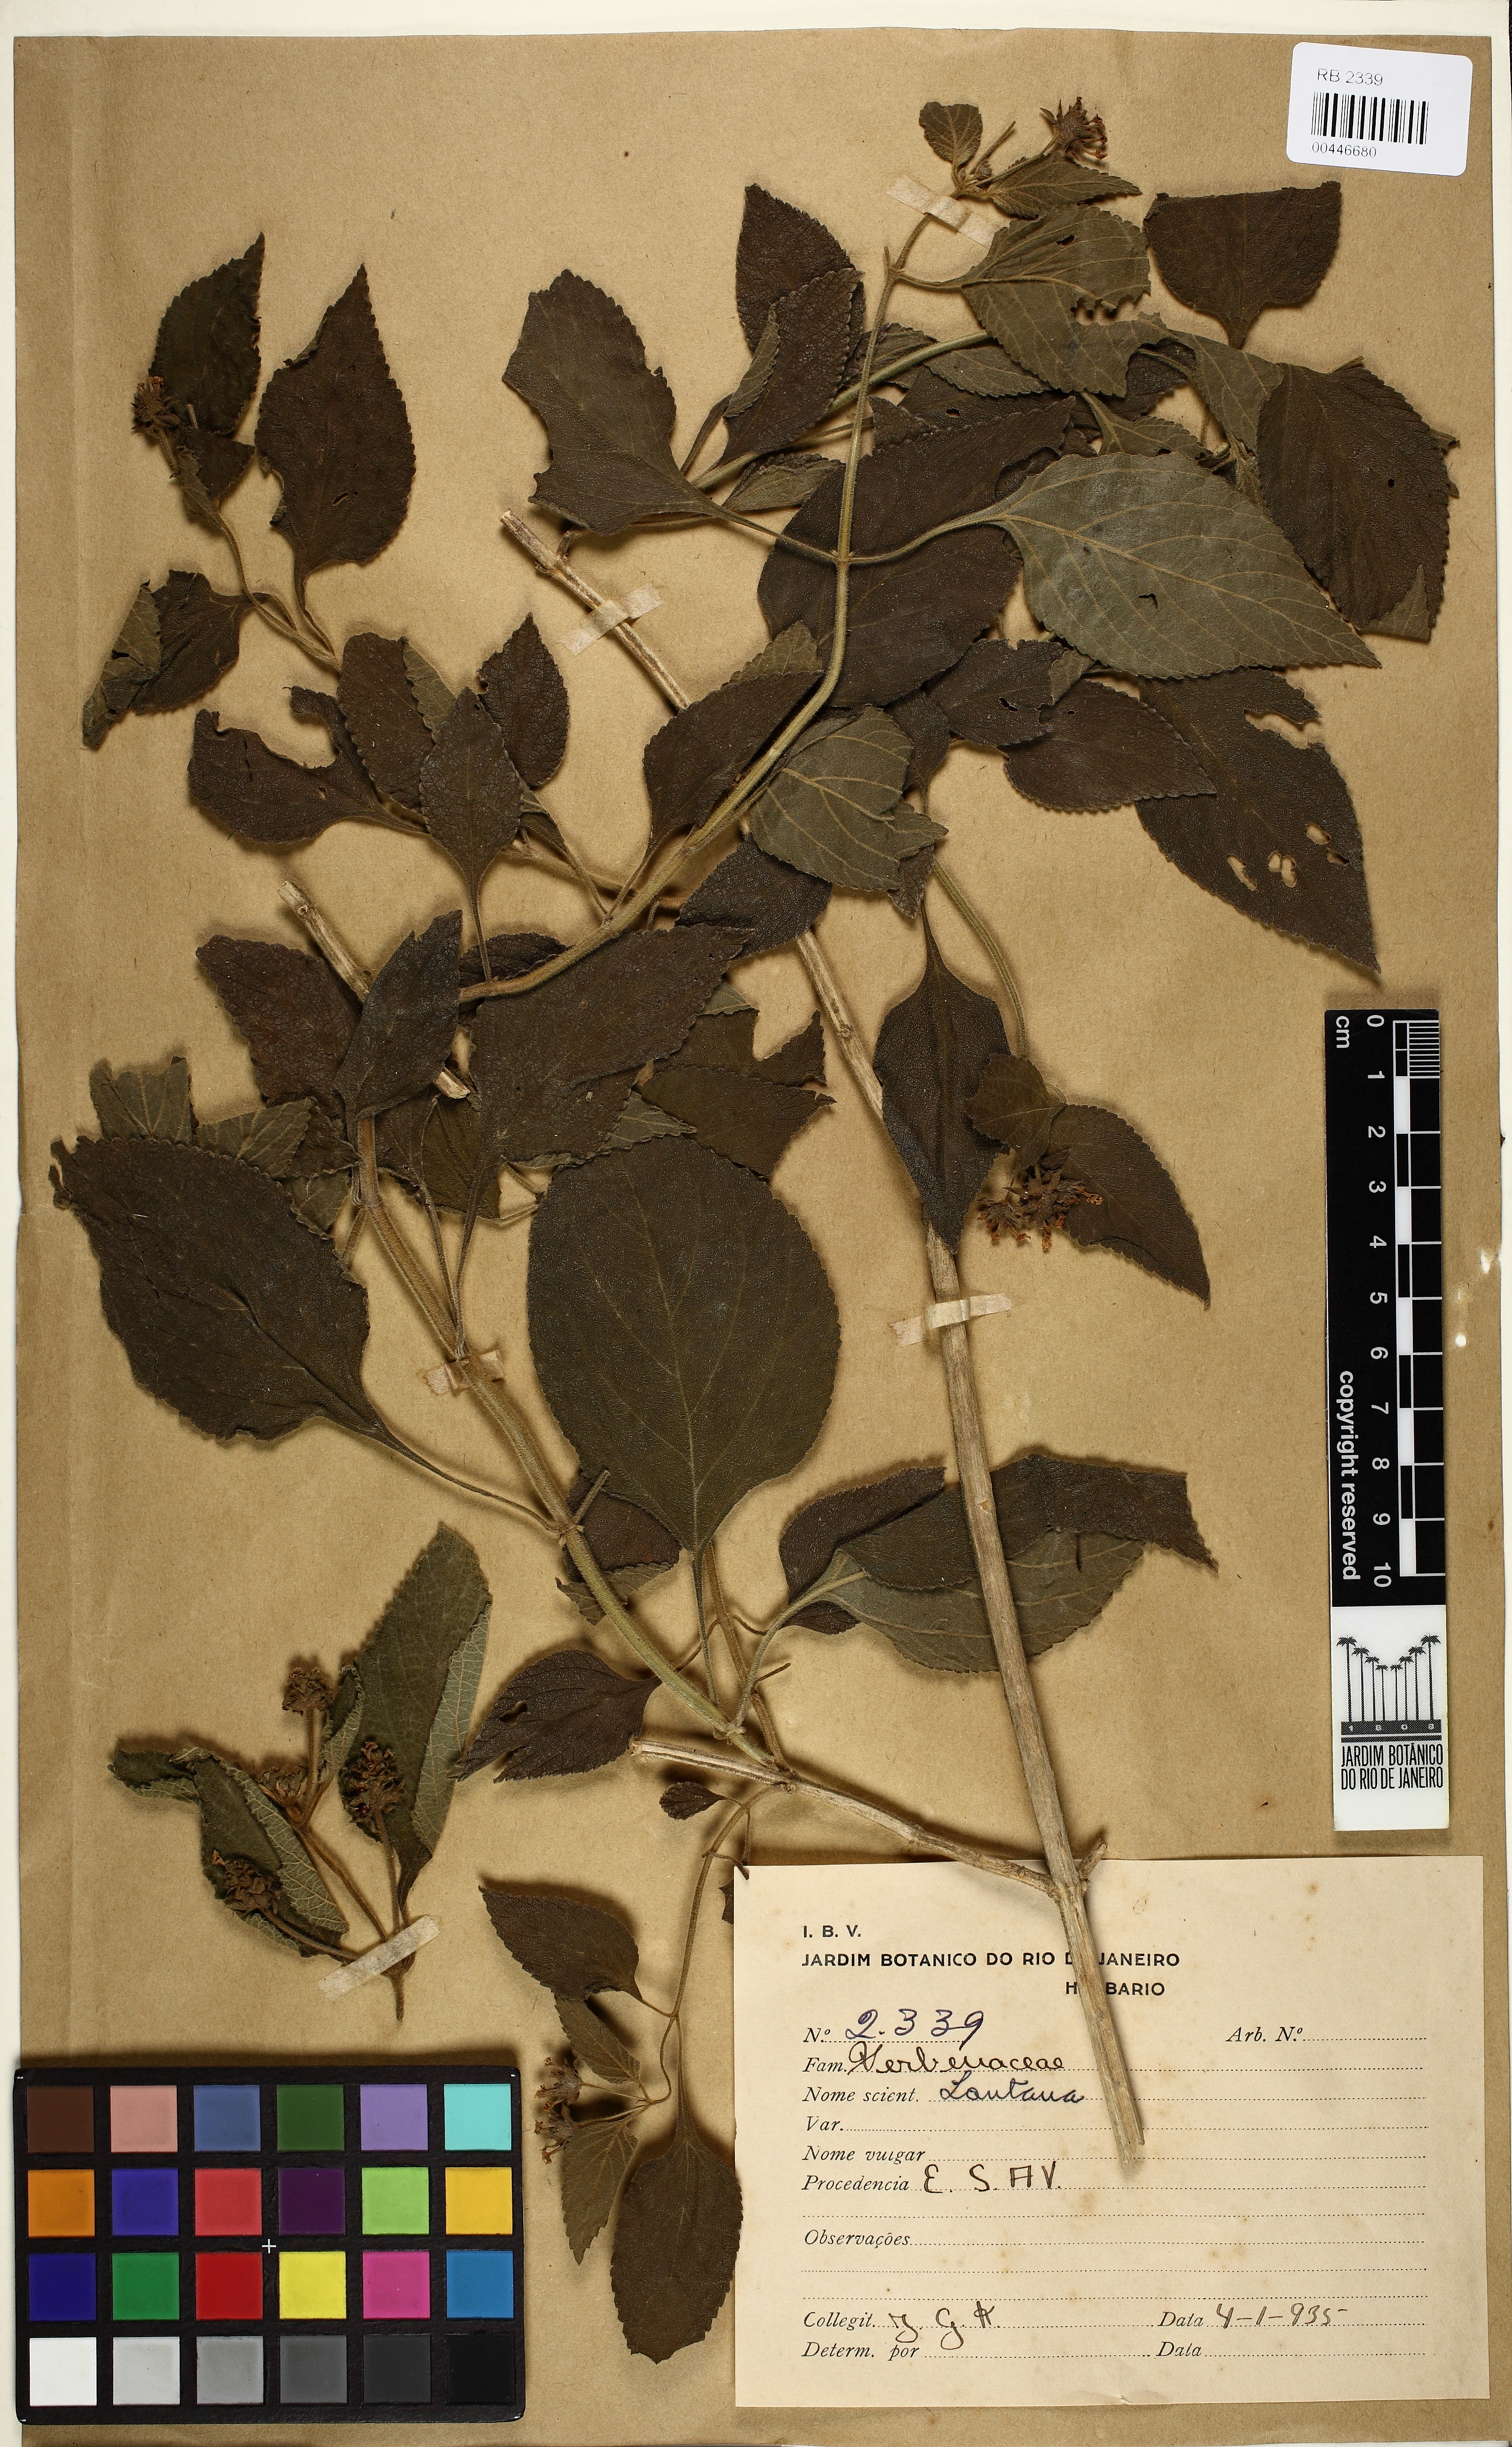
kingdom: Plantae
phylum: Tracheophyta
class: Magnoliopsida
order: Lamiales
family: Verbenaceae
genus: Lantana
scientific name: Lantana
